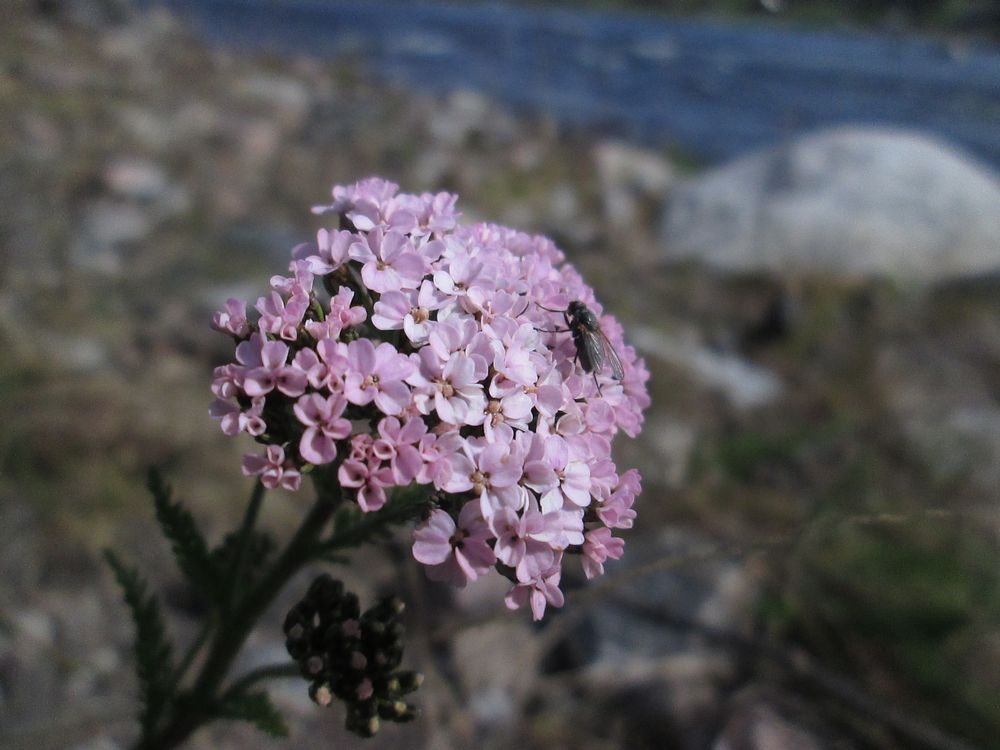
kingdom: Plantae
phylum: Tracheophyta
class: Magnoliopsida
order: Asterales
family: Asteraceae
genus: Achillea
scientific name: Achillea millefolium
